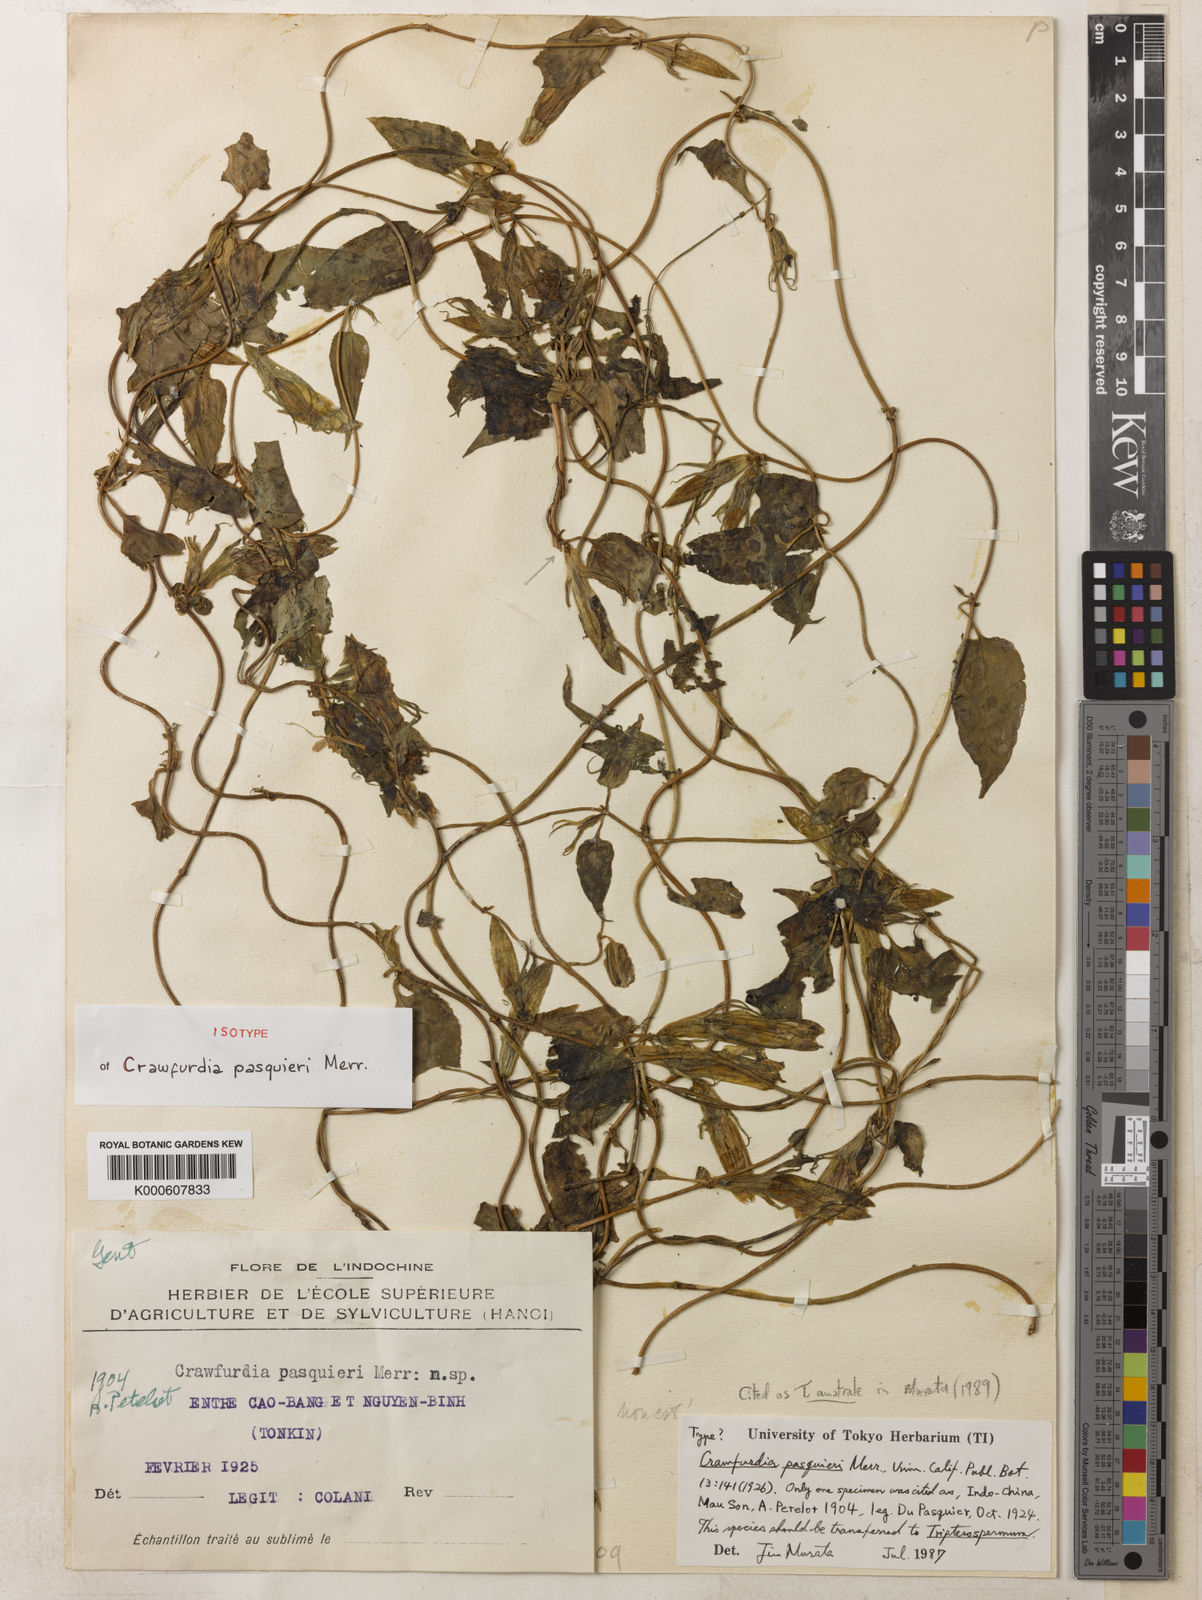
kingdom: Plantae
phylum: Tracheophyta
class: Magnoliopsida
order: Gentianales
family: Gentianaceae
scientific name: Gentianaceae
